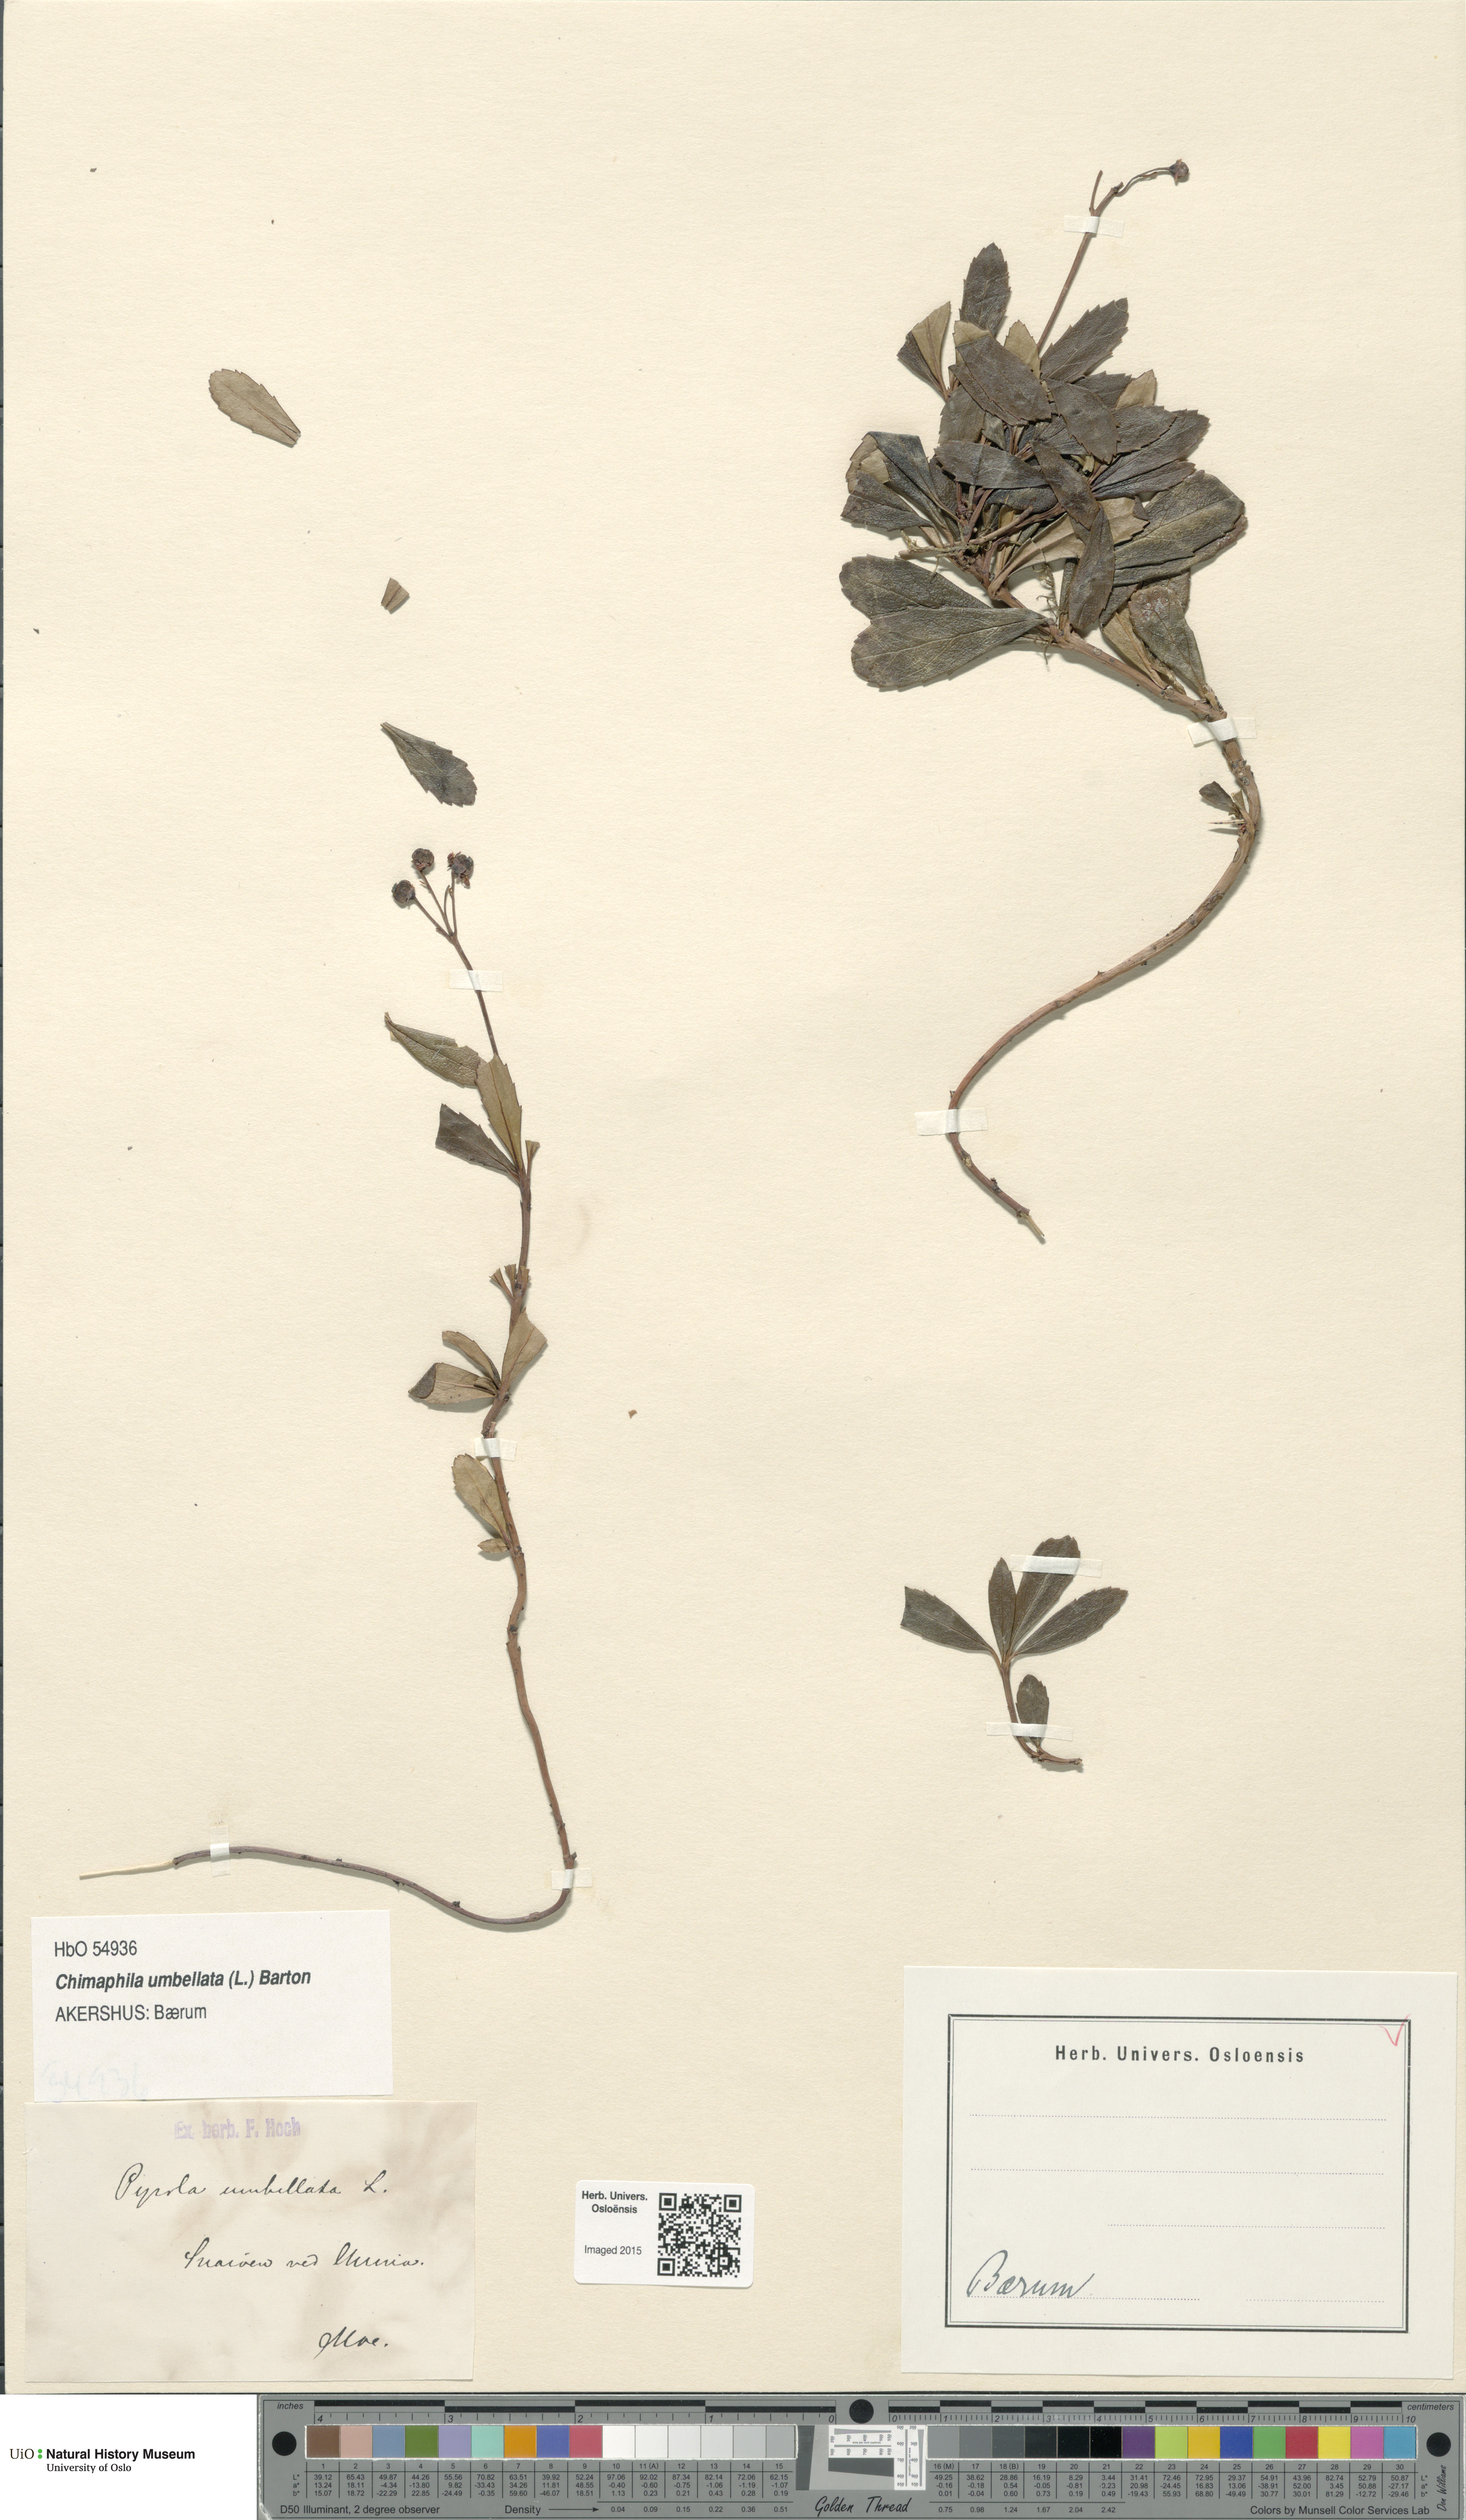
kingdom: Plantae
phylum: Tracheophyta
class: Magnoliopsida
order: Ericales
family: Ericaceae
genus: Chimaphila
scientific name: Chimaphila umbellata
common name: Pipsissewa
